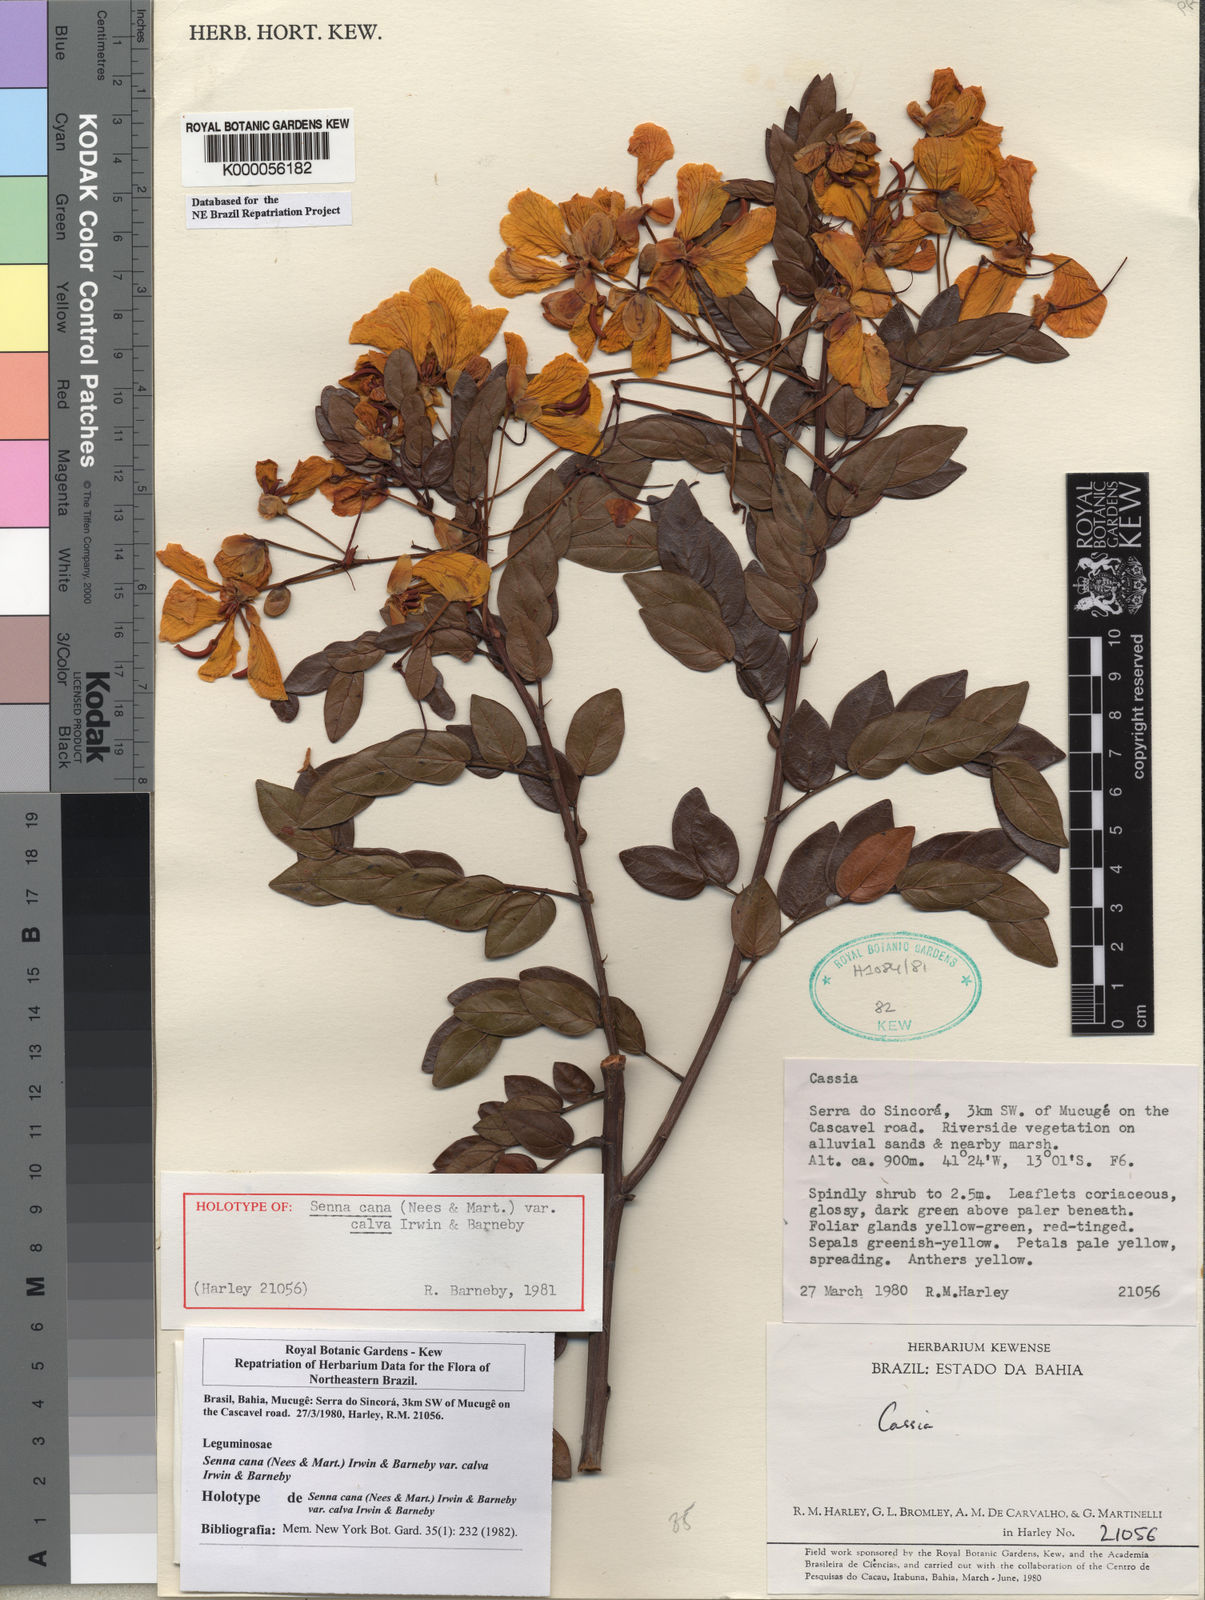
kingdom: Plantae
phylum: Tracheophyta
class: Magnoliopsida
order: Fabales
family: Fabaceae
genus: Senna
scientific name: Senna cana
